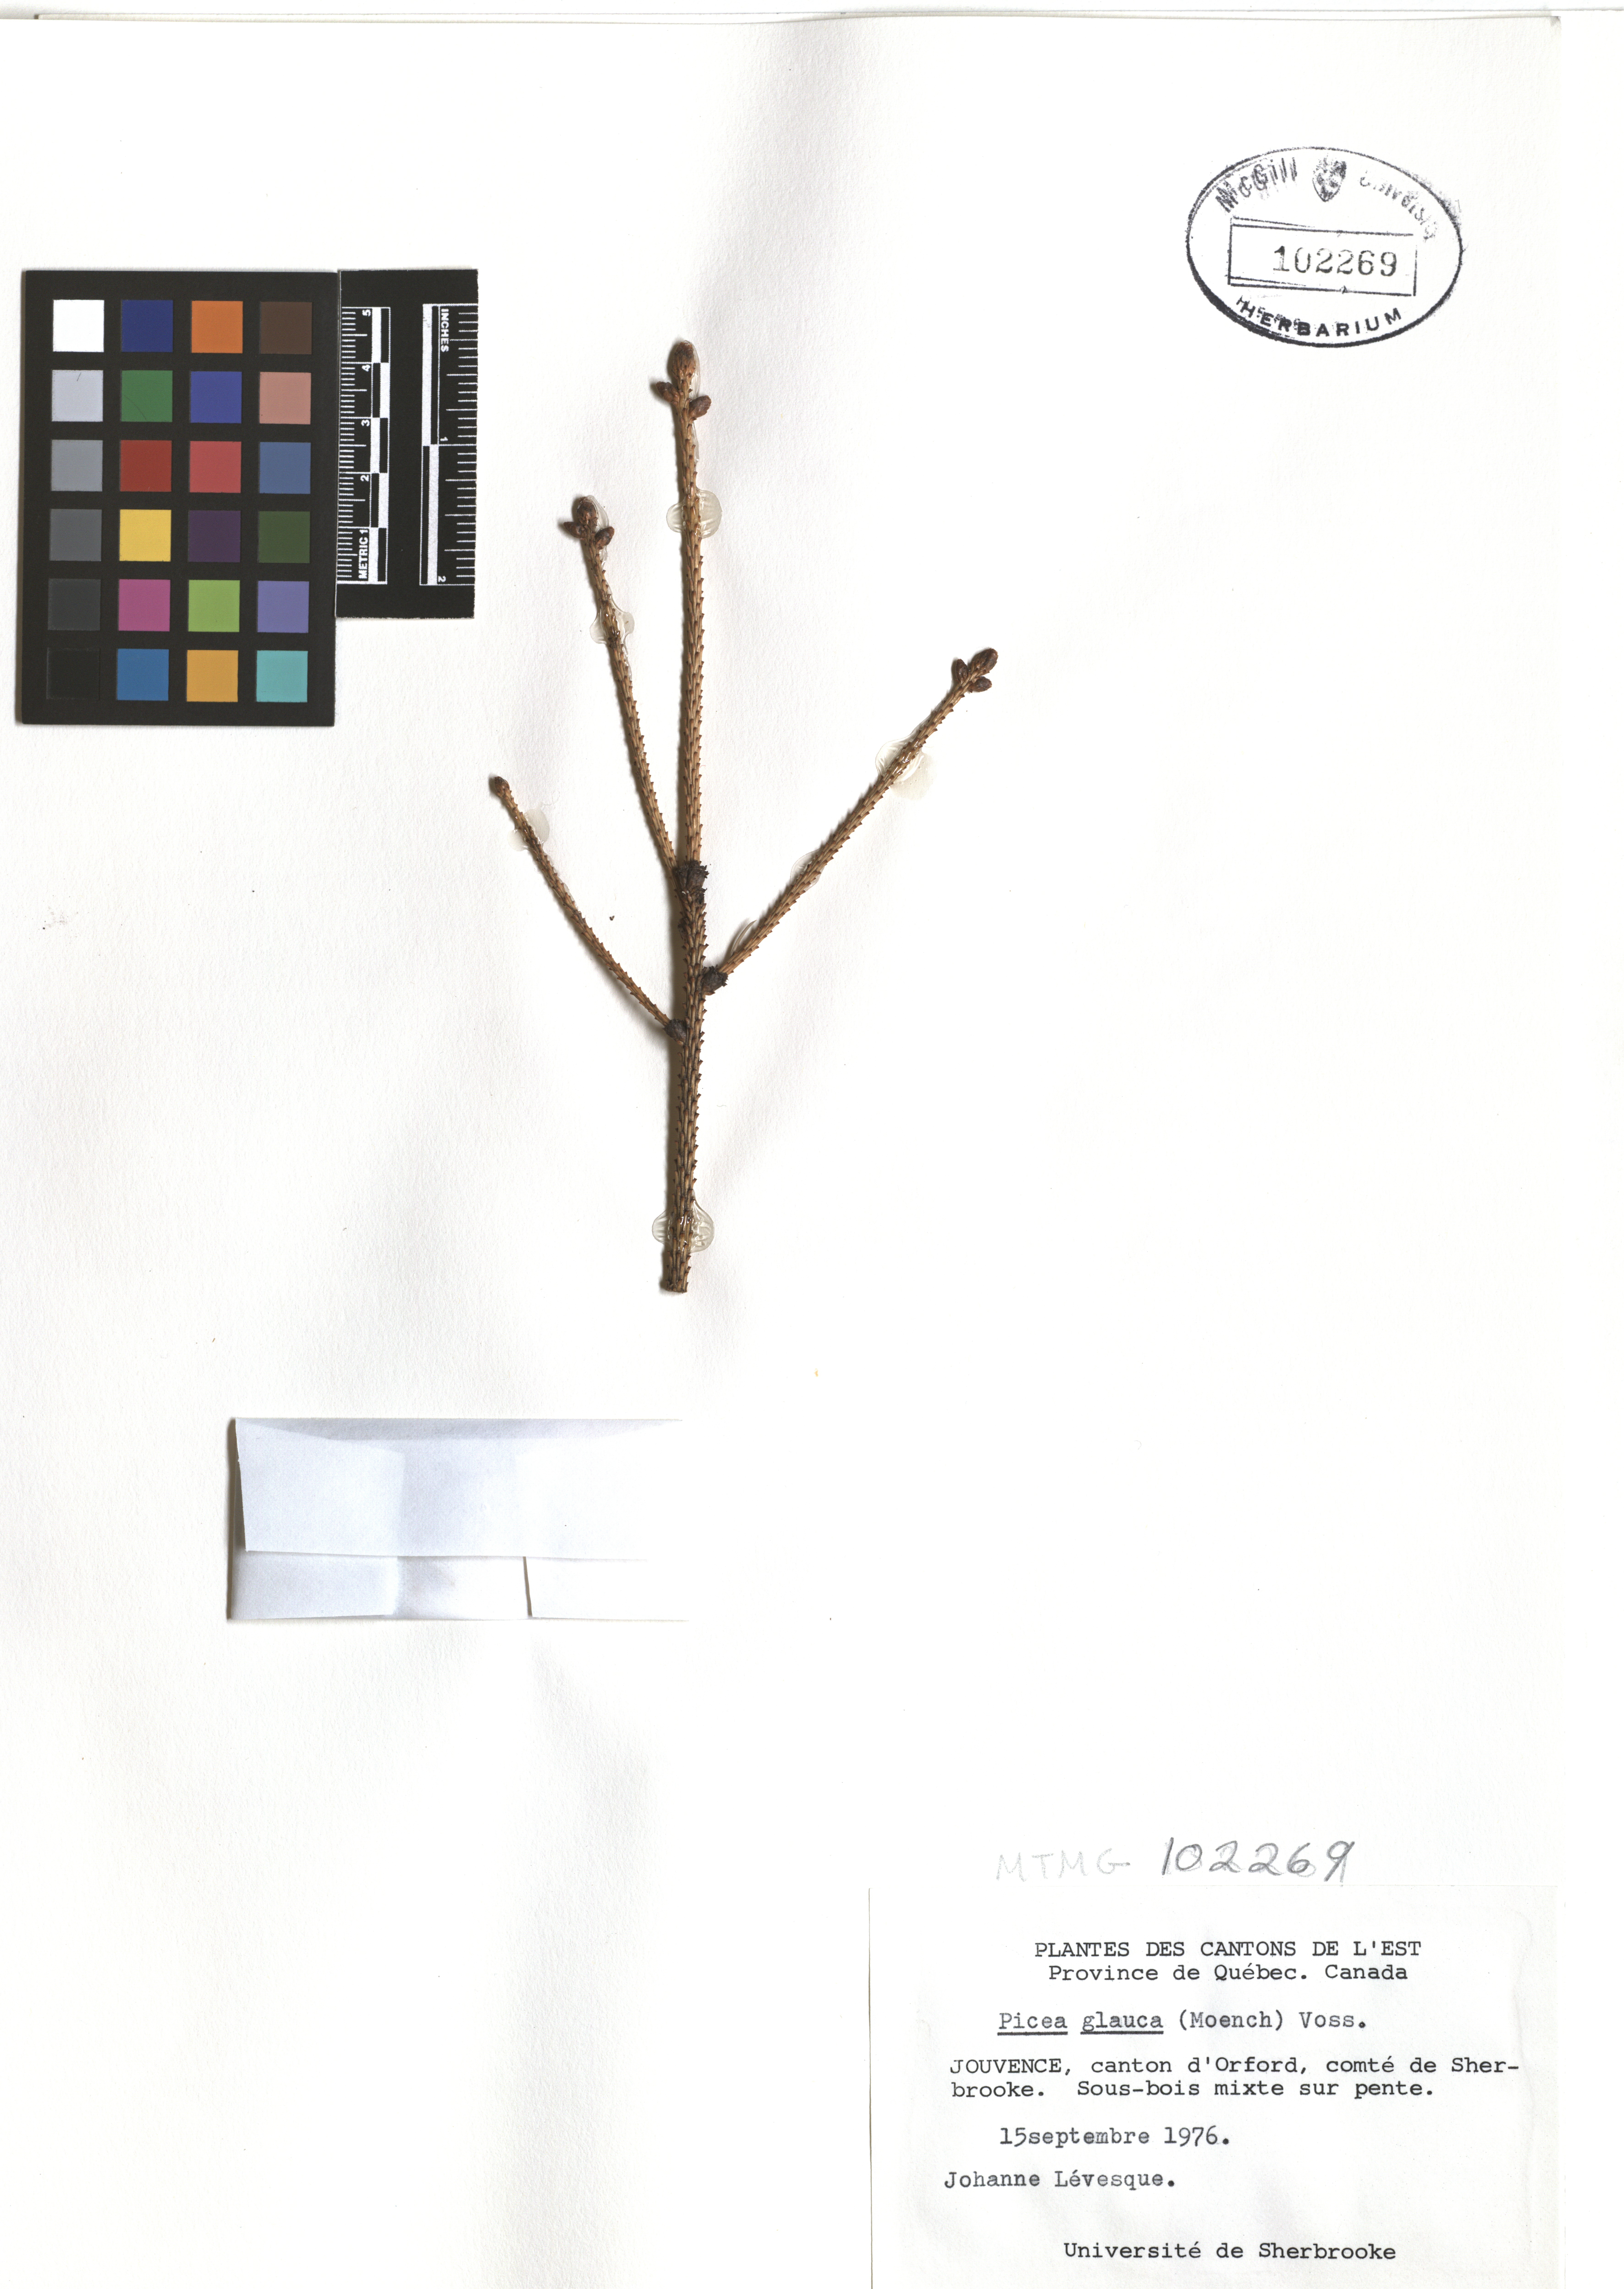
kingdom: Plantae
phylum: Tracheophyta
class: Pinopsida
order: Pinales
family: Pinaceae
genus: Picea
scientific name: Picea glauca
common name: White spruce
